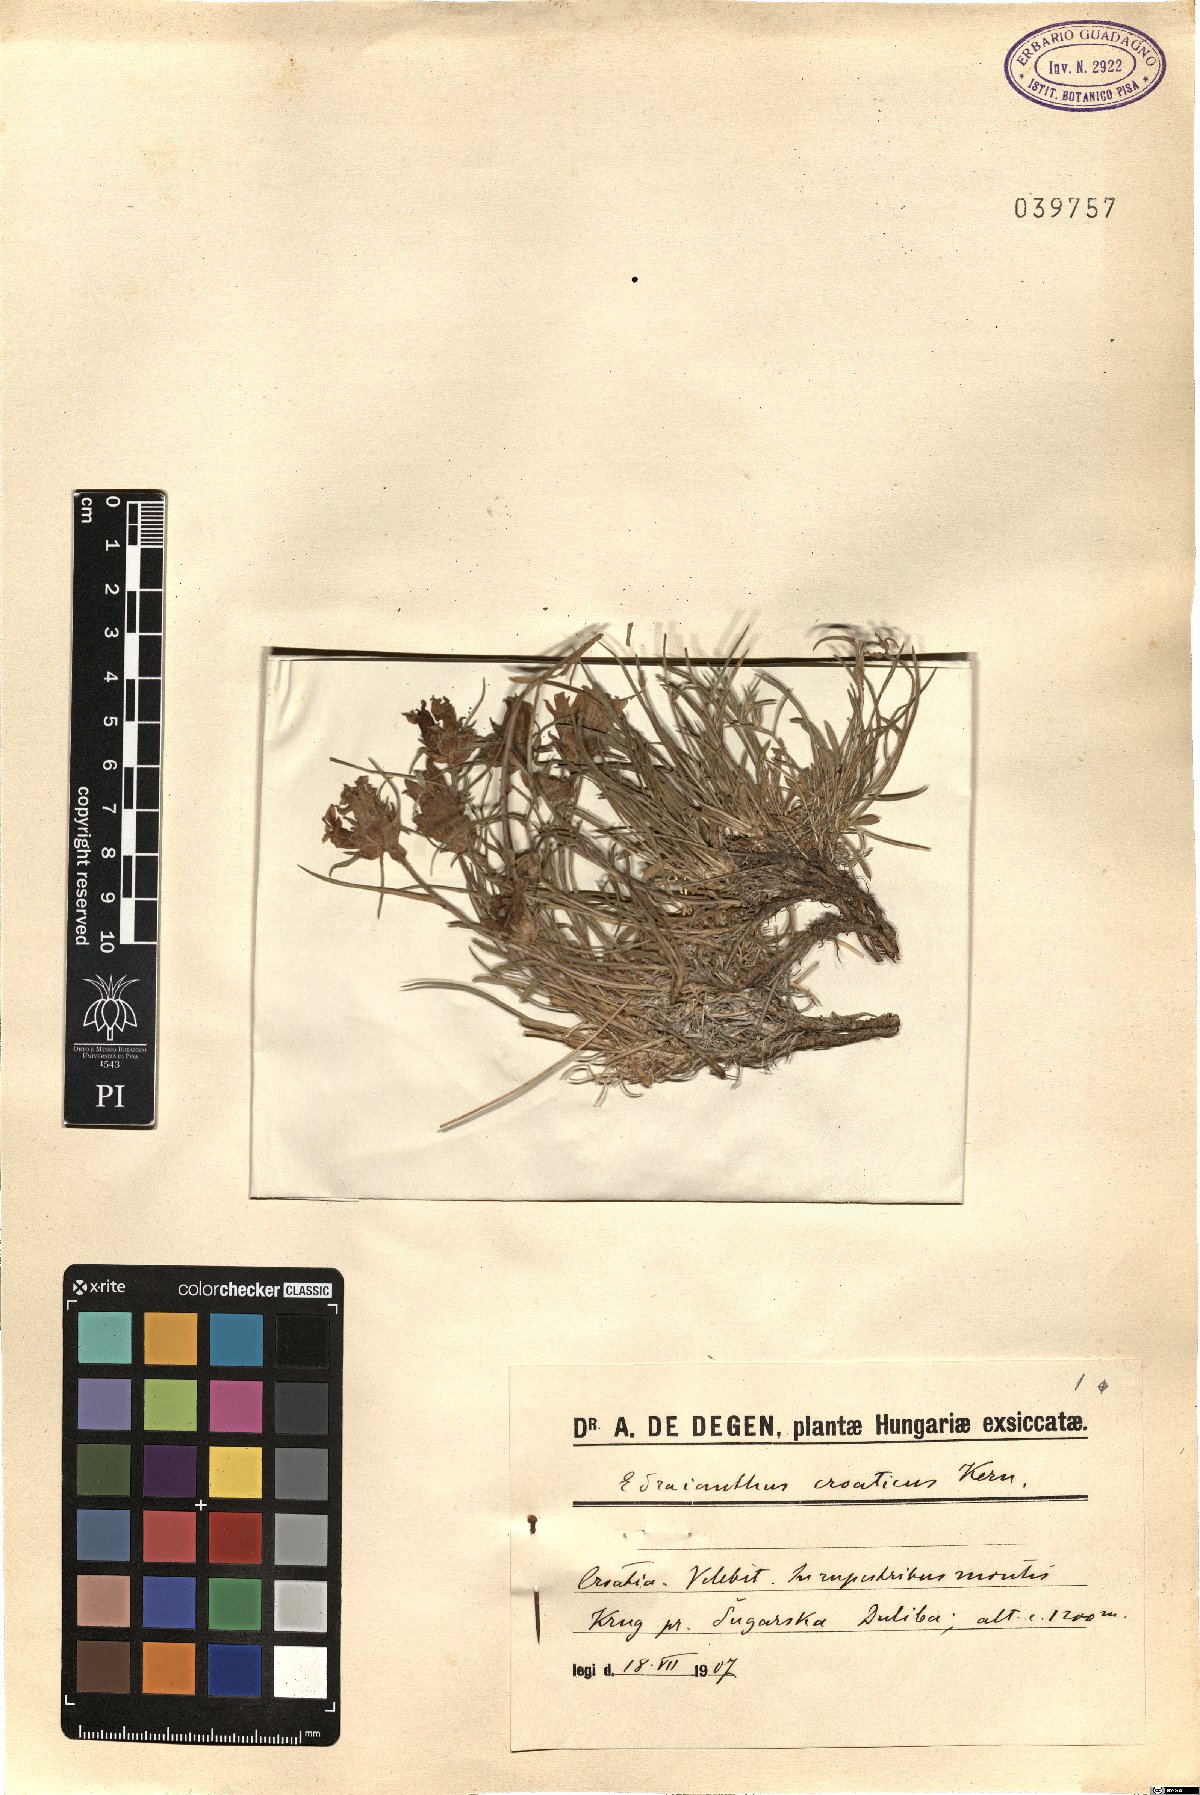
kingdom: Plantae
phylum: Tracheophyta
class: Magnoliopsida
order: Asterales
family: Campanulaceae
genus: Edraianthus
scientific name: Edraianthus graminifolius
